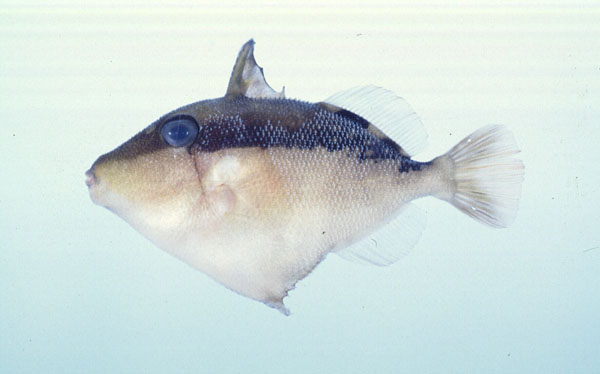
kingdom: Animalia
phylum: Chordata
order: Tetraodontiformes
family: Balistidae
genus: Sufflamen
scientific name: Sufflamen chrysopterum
